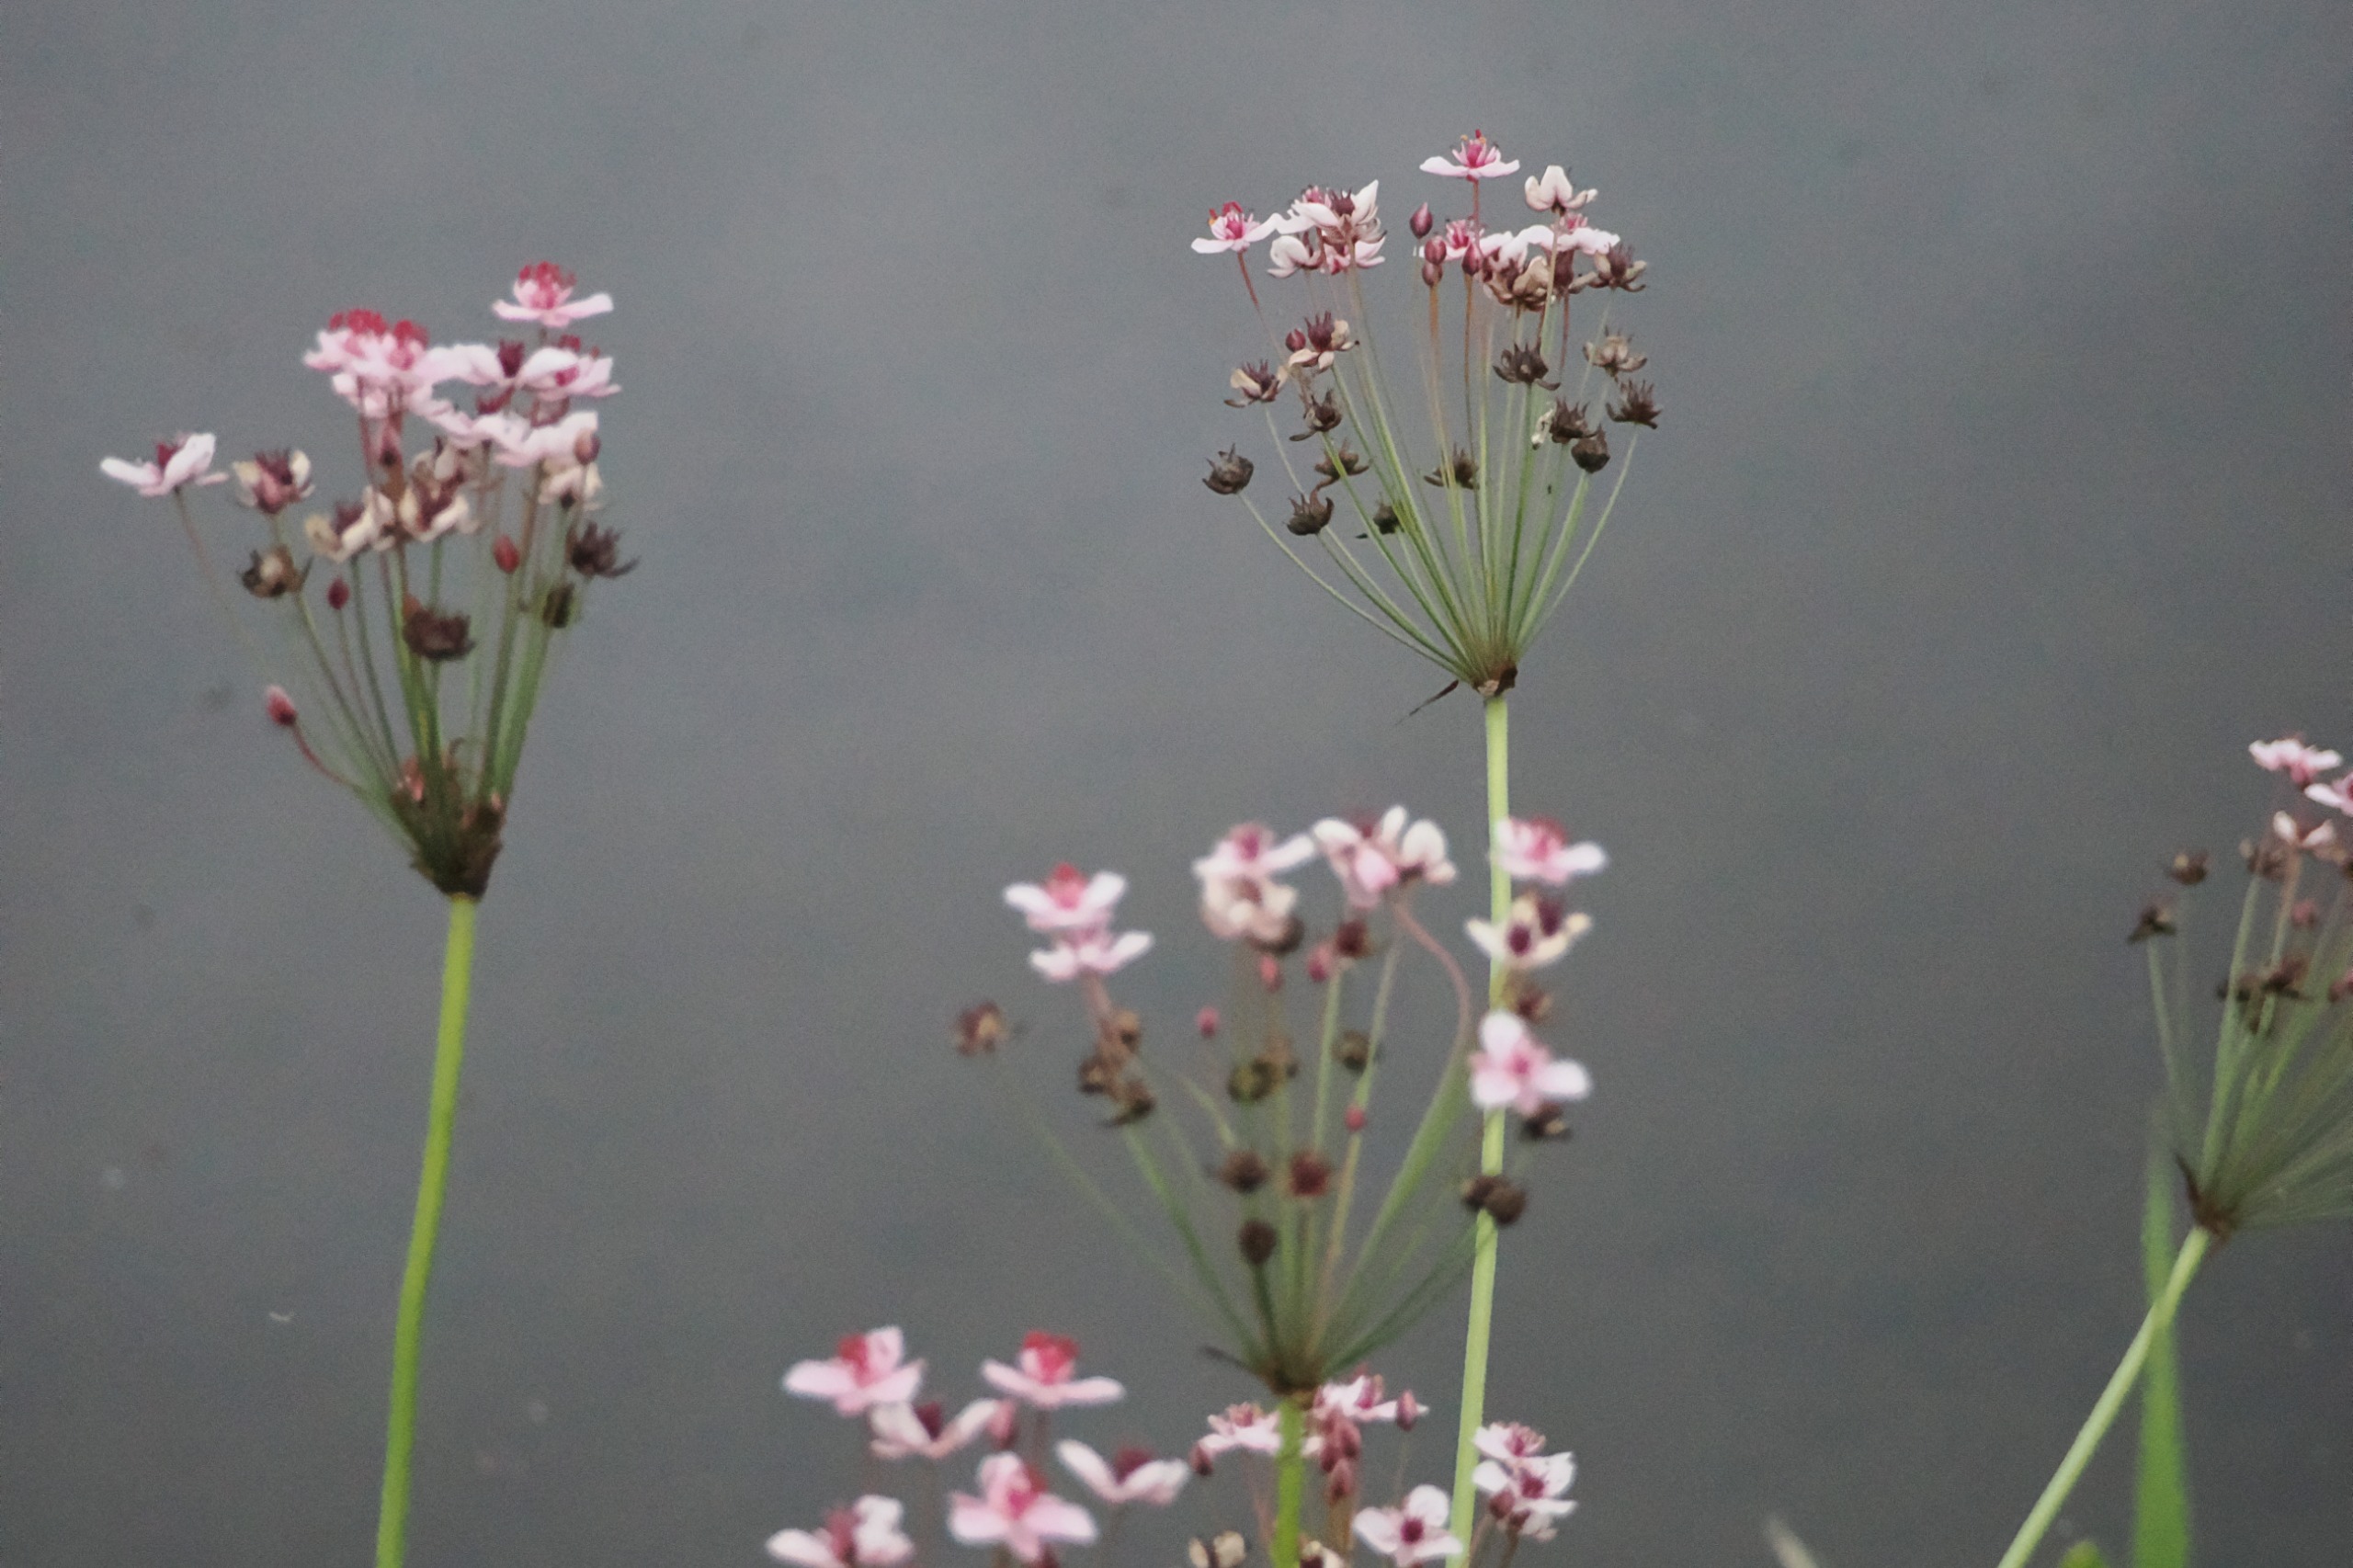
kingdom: Plantae
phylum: Tracheophyta
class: Liliopsida
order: Alismatales
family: Butomaceae
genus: Butomus
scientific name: Butomus umbellatus
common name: Brudelys
